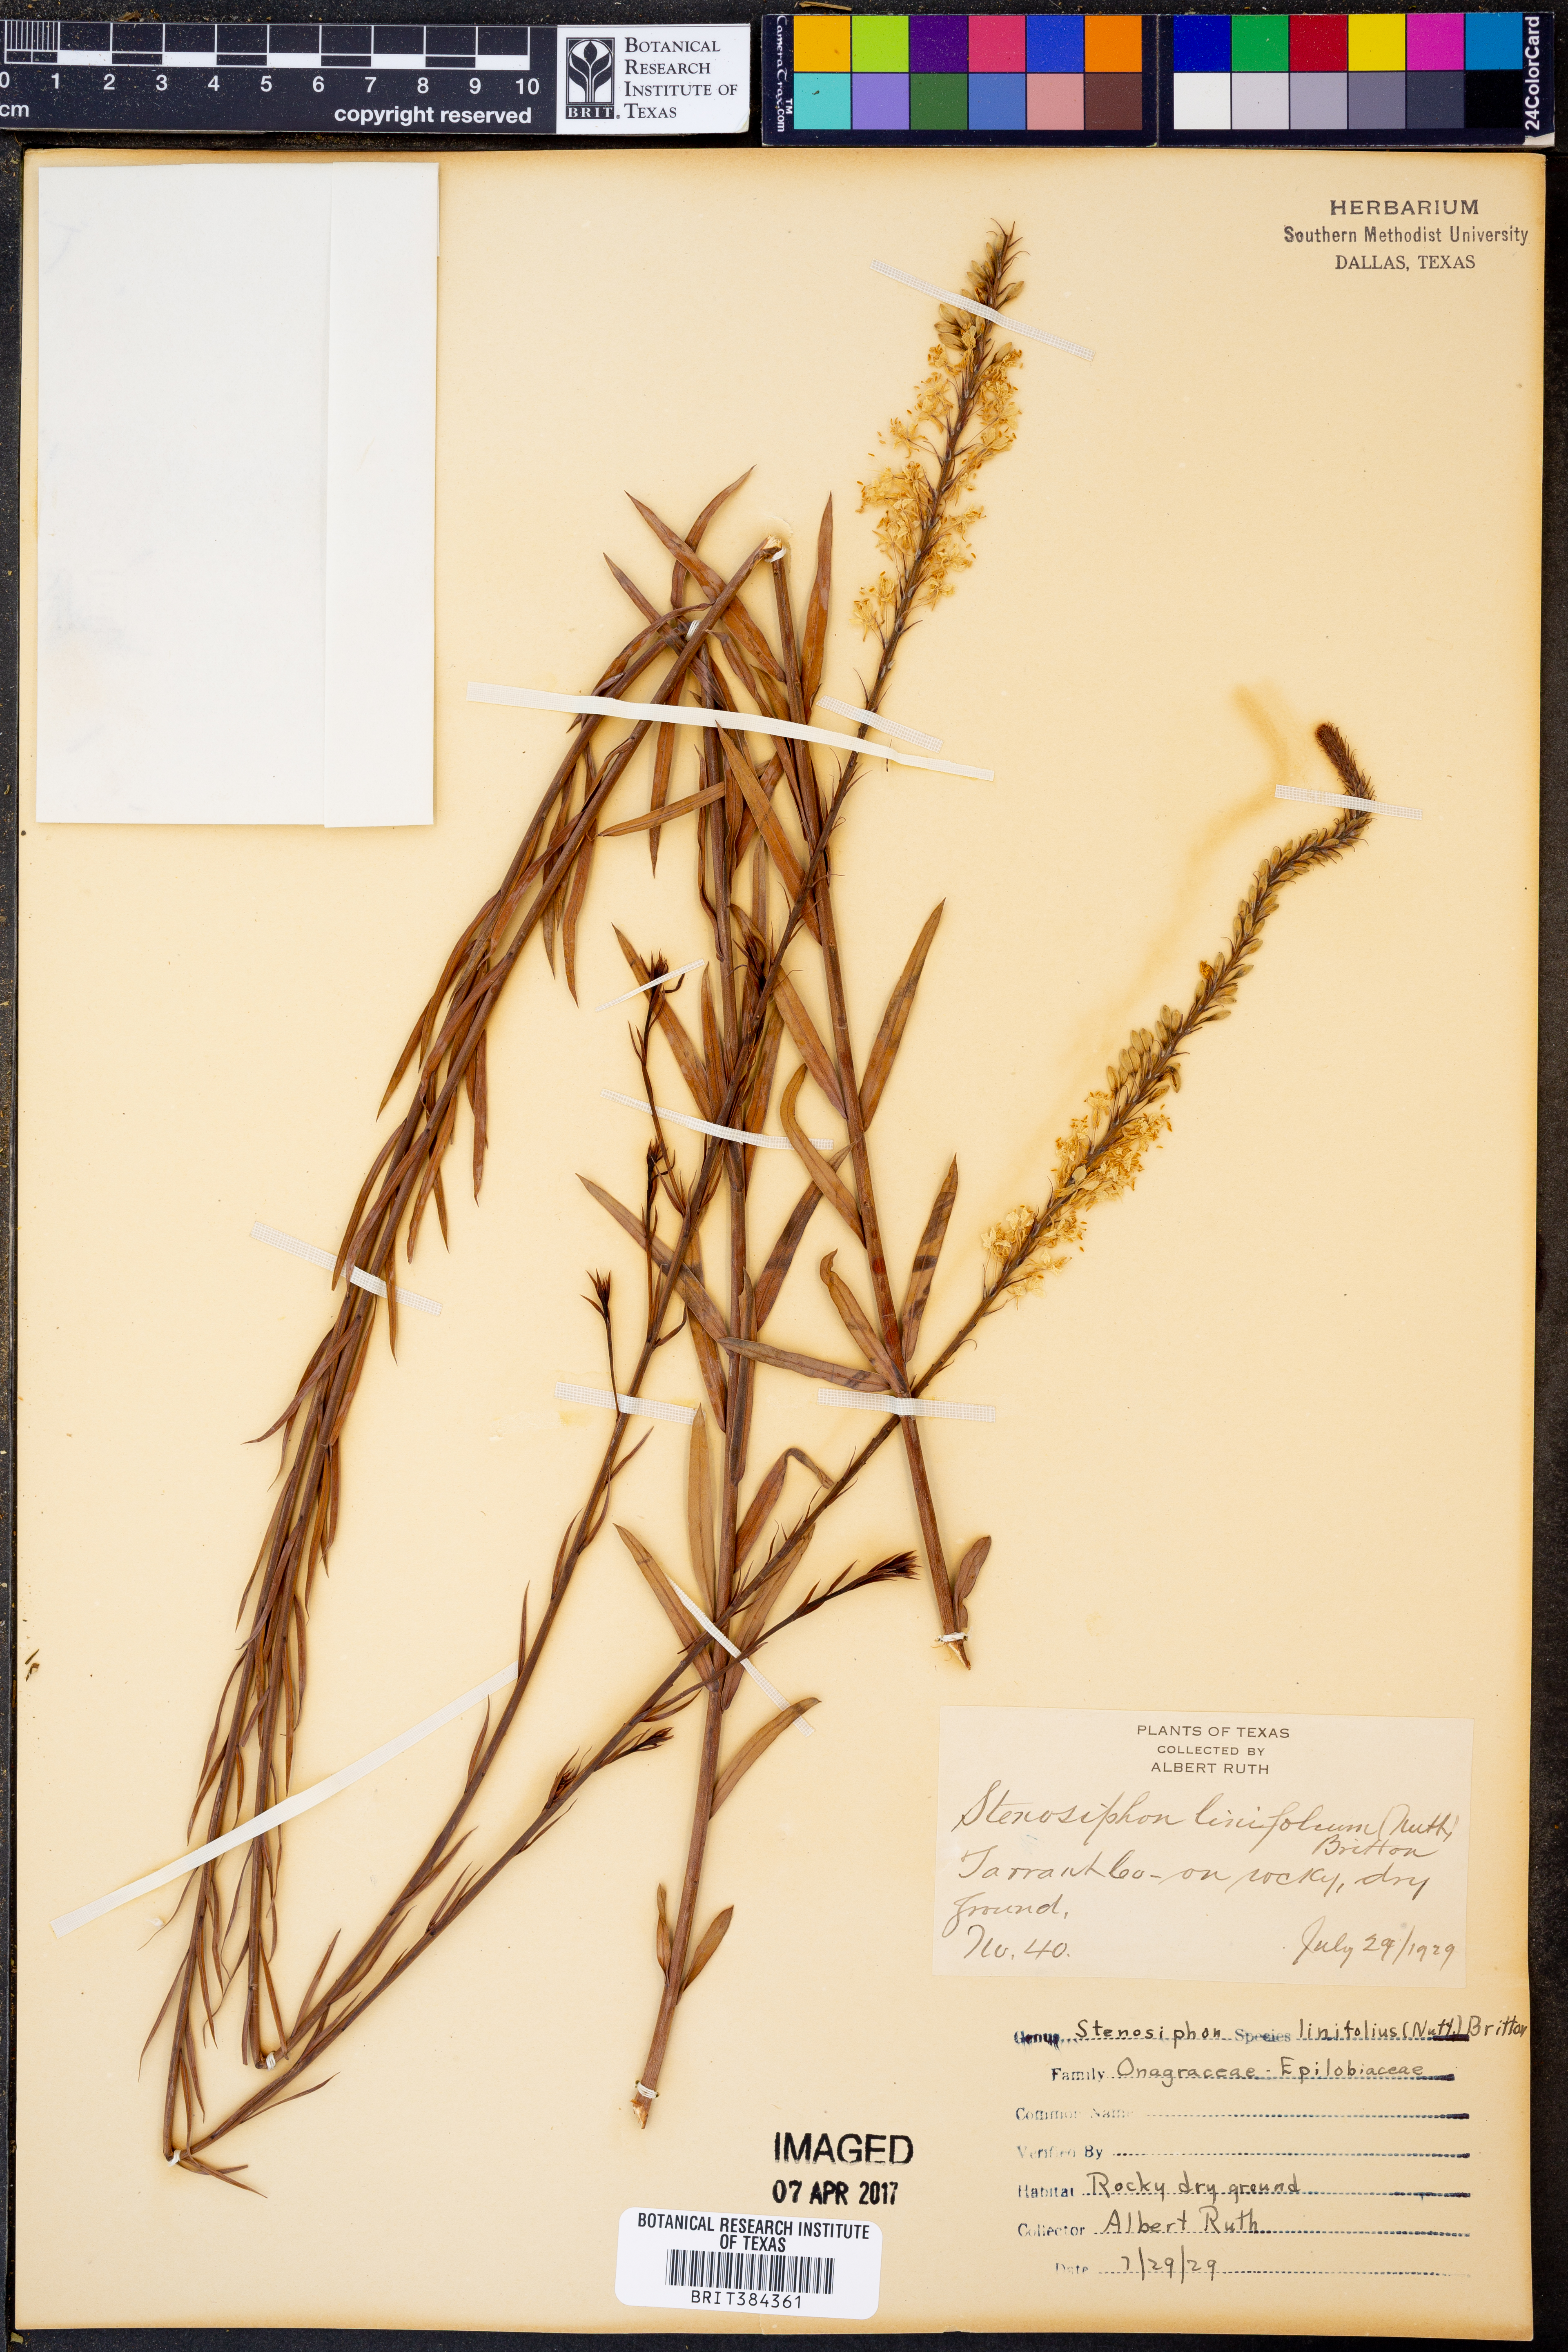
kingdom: Plantae
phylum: Tracheophyta
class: Magnoliopsida
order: Myrtales
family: Onagraceae
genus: Oenothera
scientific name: Oenothera glaucifolia
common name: False gaura
